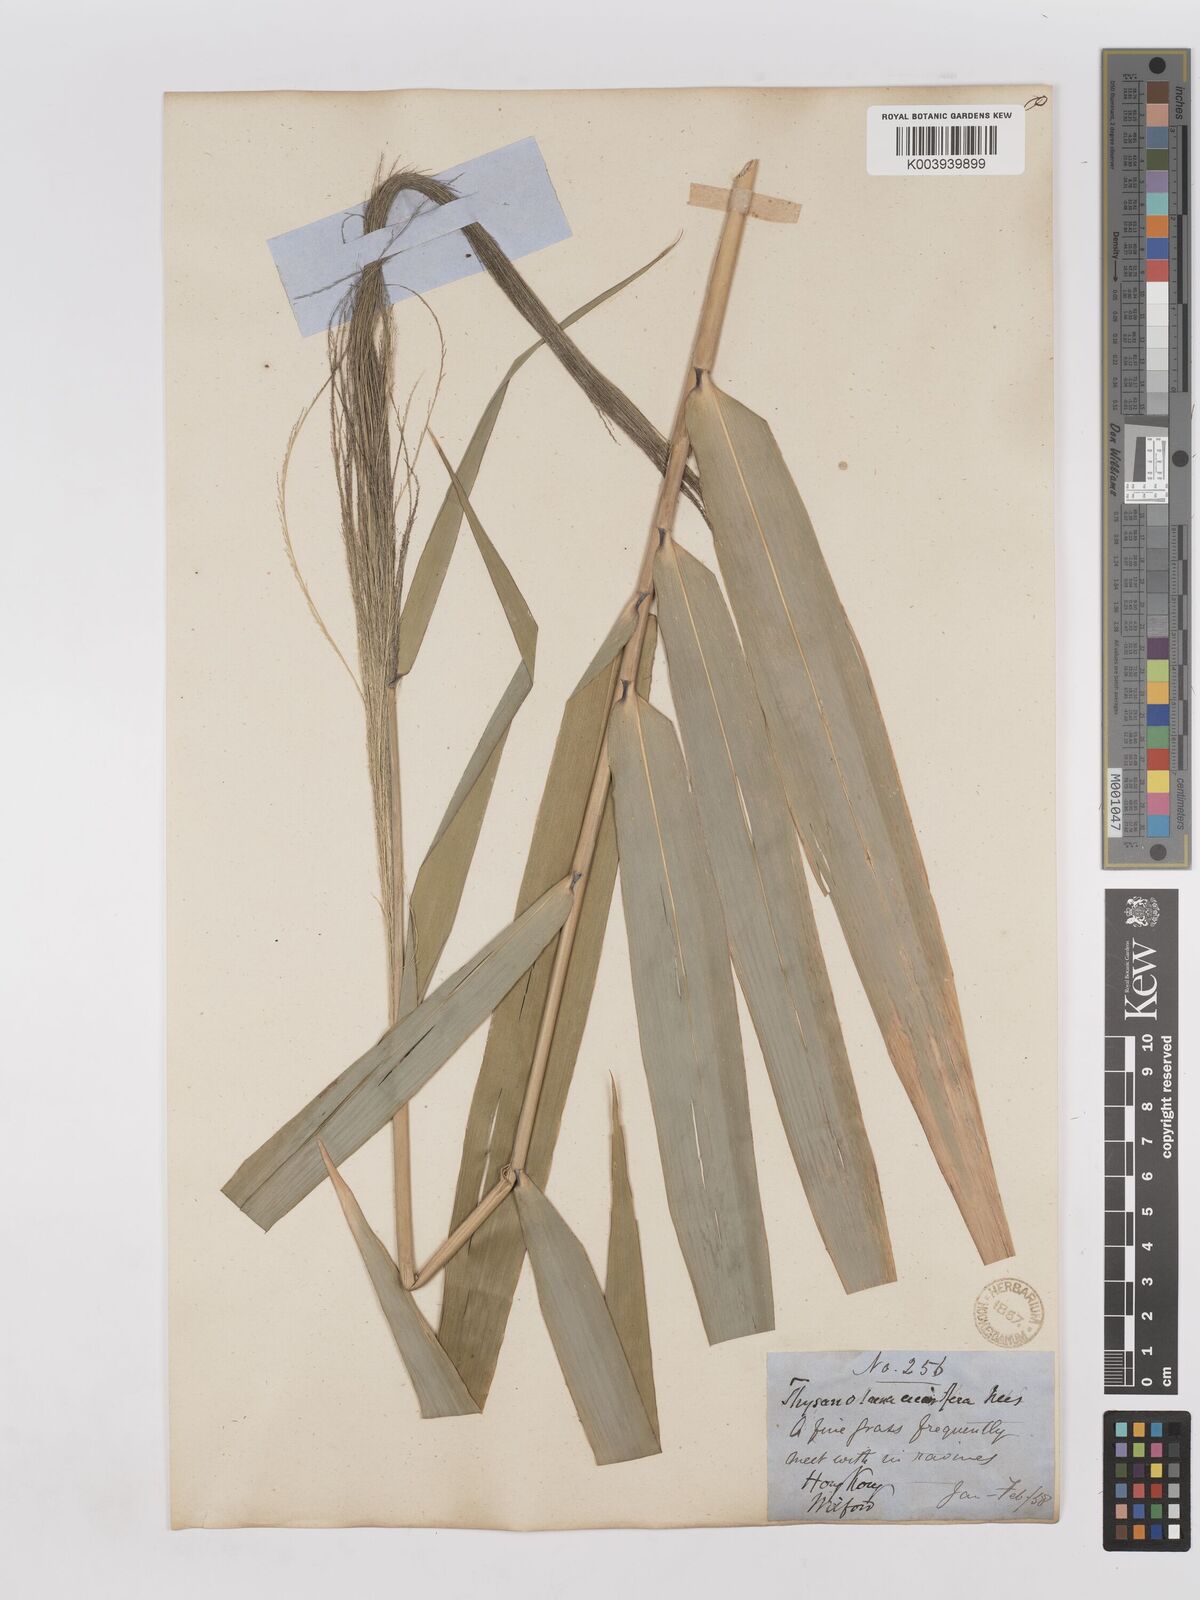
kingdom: Plantae
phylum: Tracheophyta
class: Liliopsida
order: Poales
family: Poaceae
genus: Thysanolaena
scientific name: Thysanolaena latifolia
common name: Tiger grass
